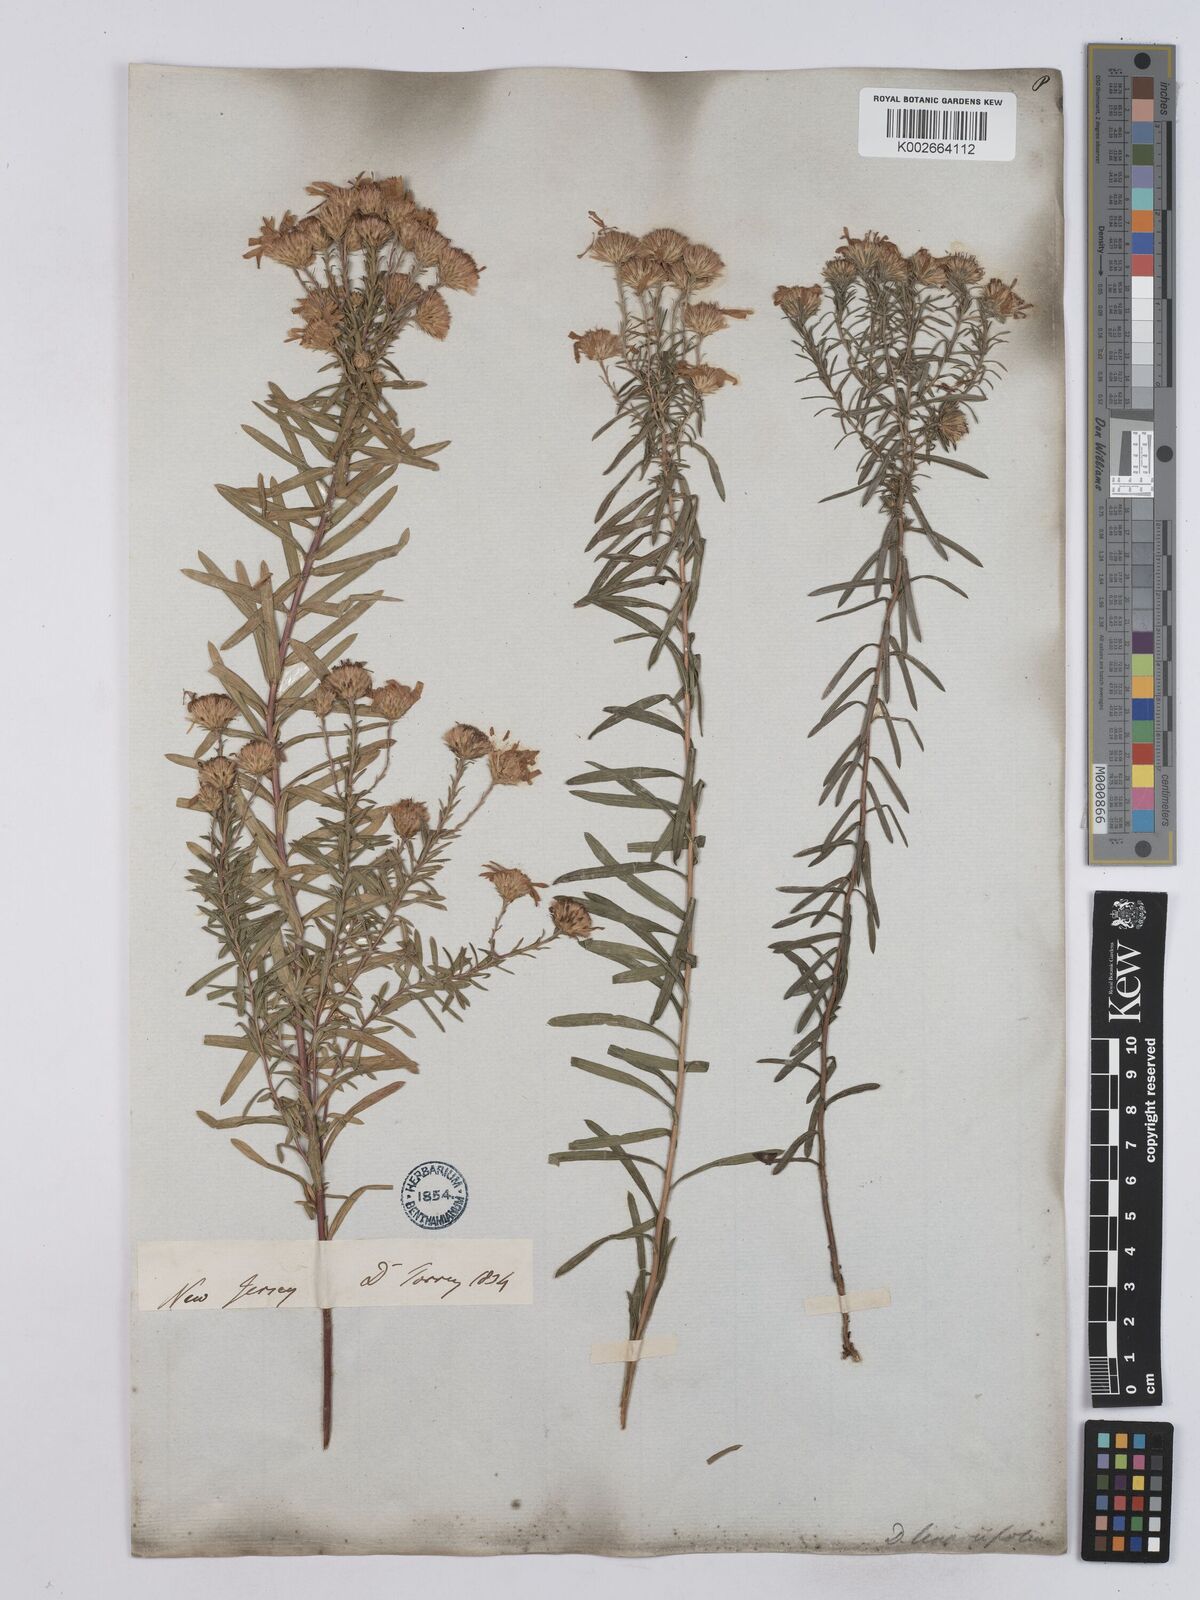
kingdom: Plantae
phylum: Tracheophyta
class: Magnoliopsida
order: Asterales
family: Asteraceae
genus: Ionactis
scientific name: Ionactis linariifolia
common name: Flax-leaf aster
